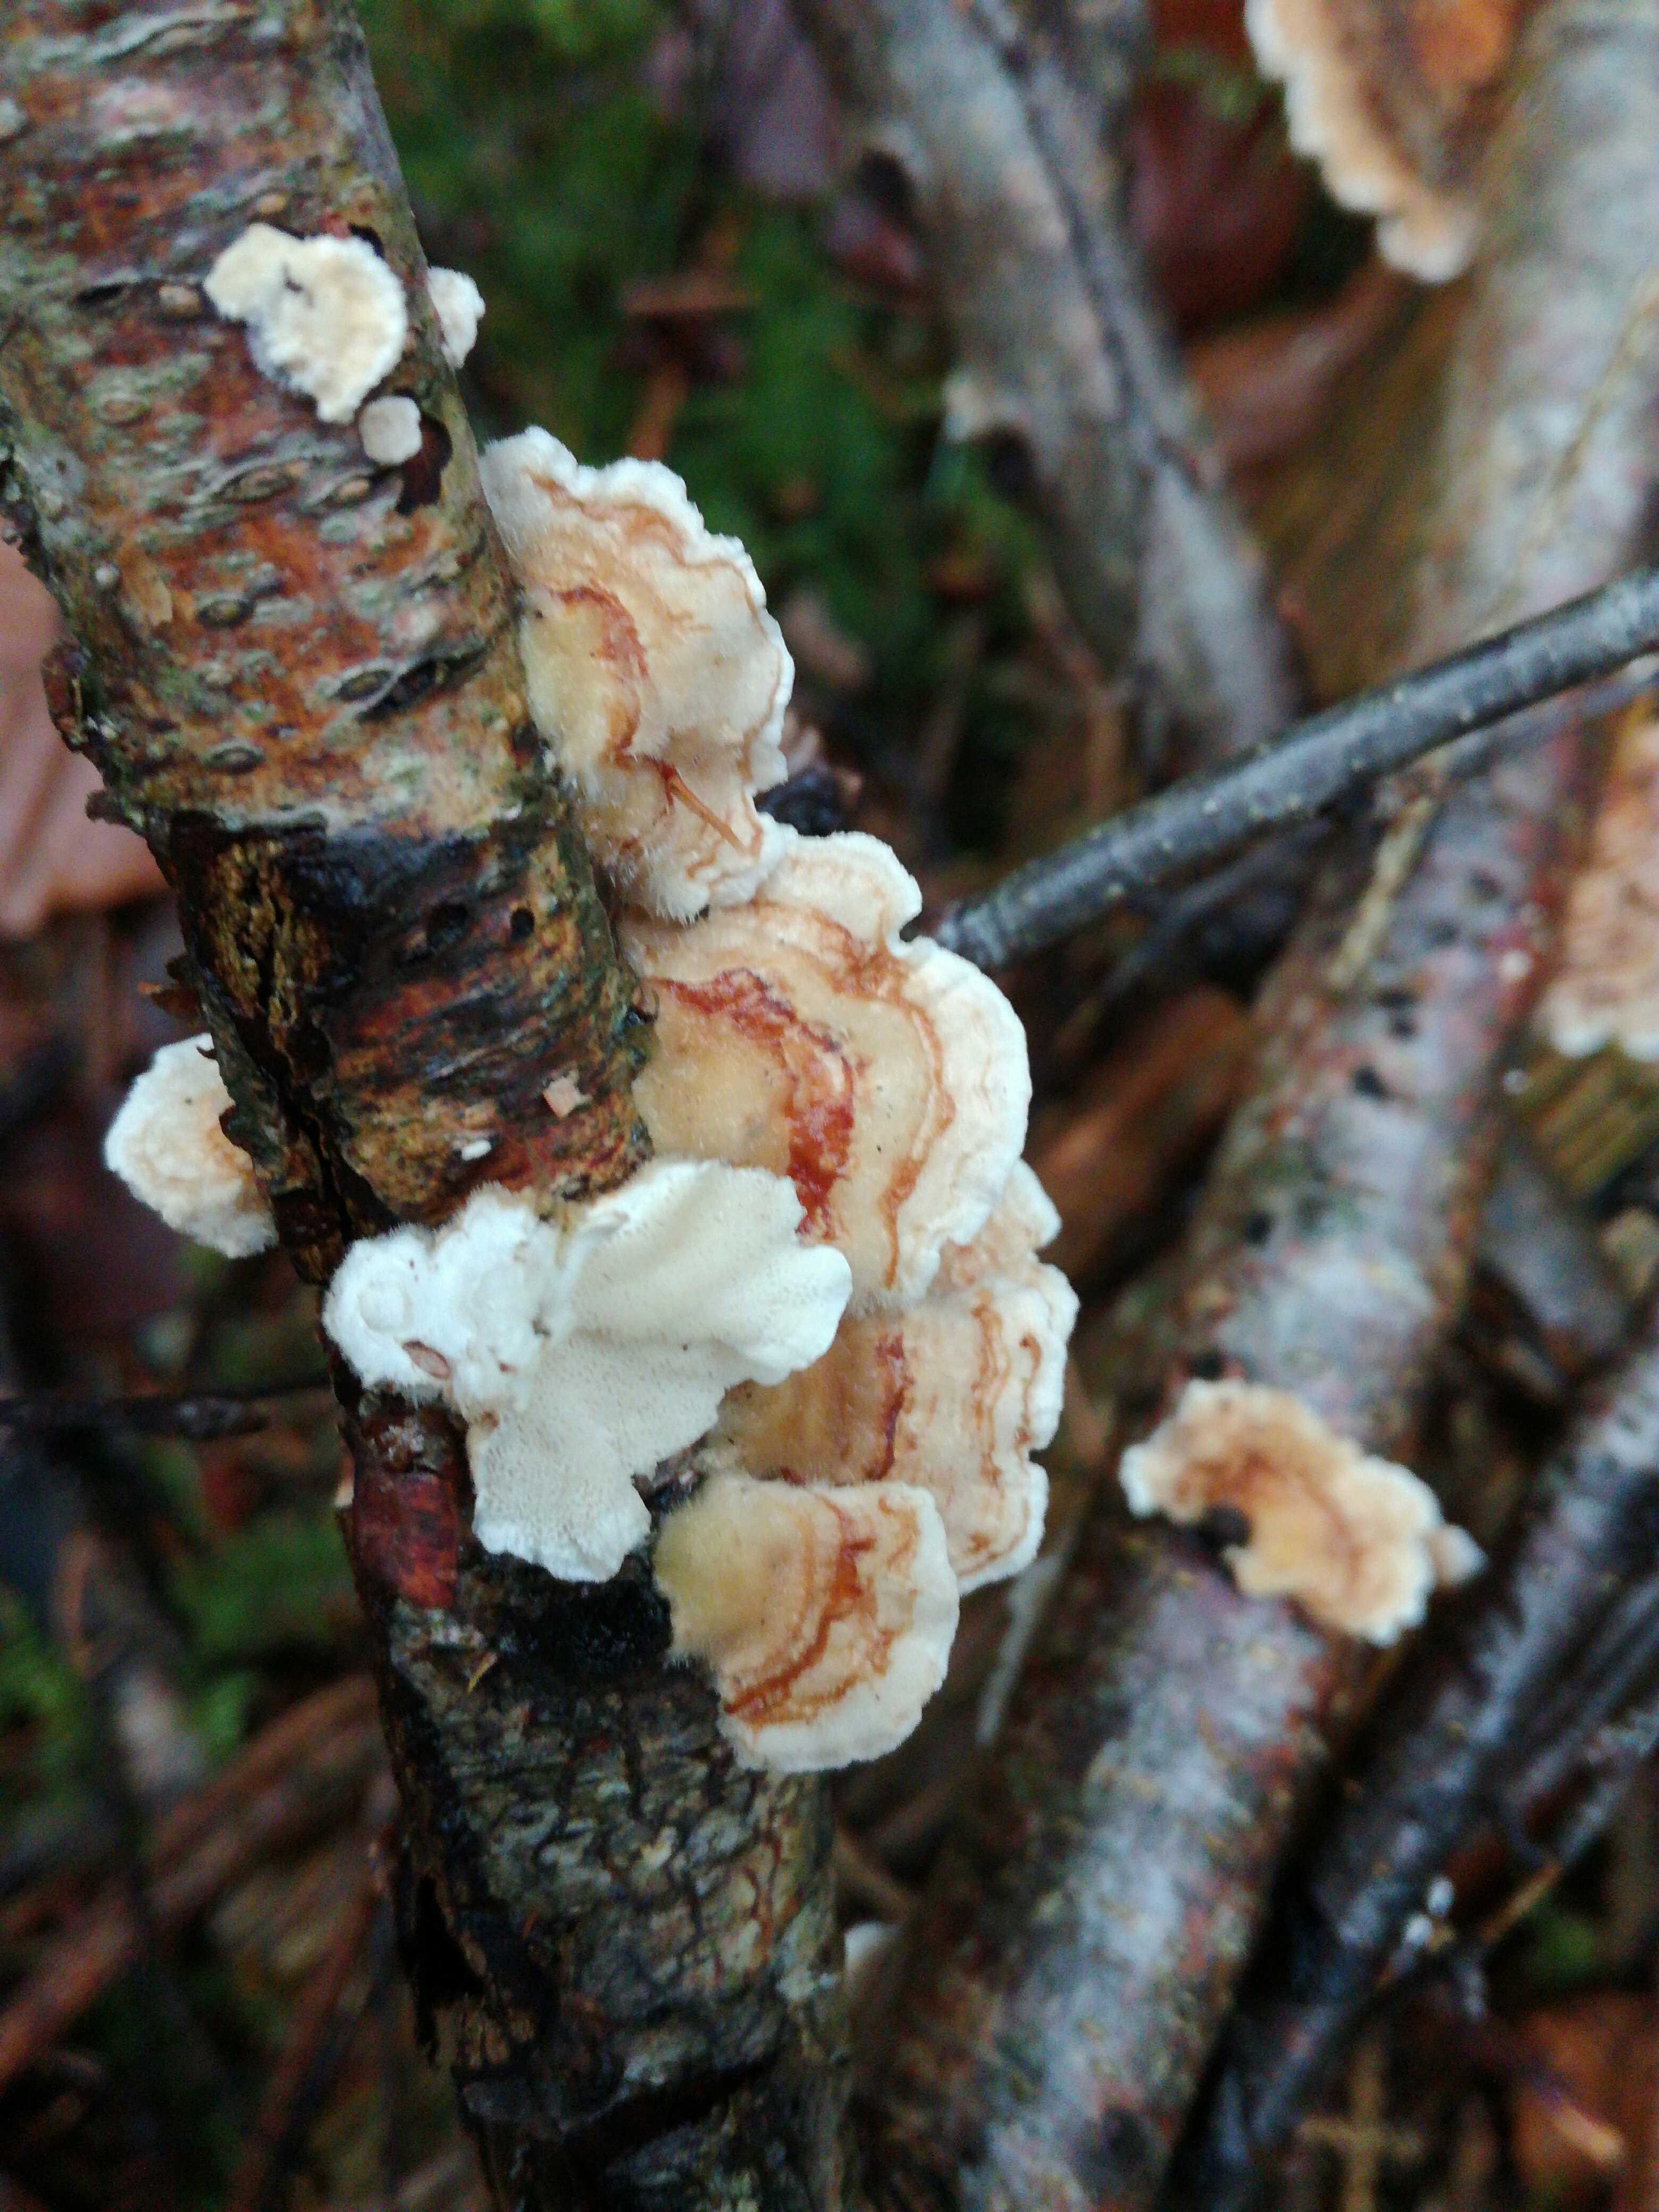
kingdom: Fungi
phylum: Basidiomycota
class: Agaricomycetes
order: Polyporales
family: Polyporaceae
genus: Trametes
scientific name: Trametes
